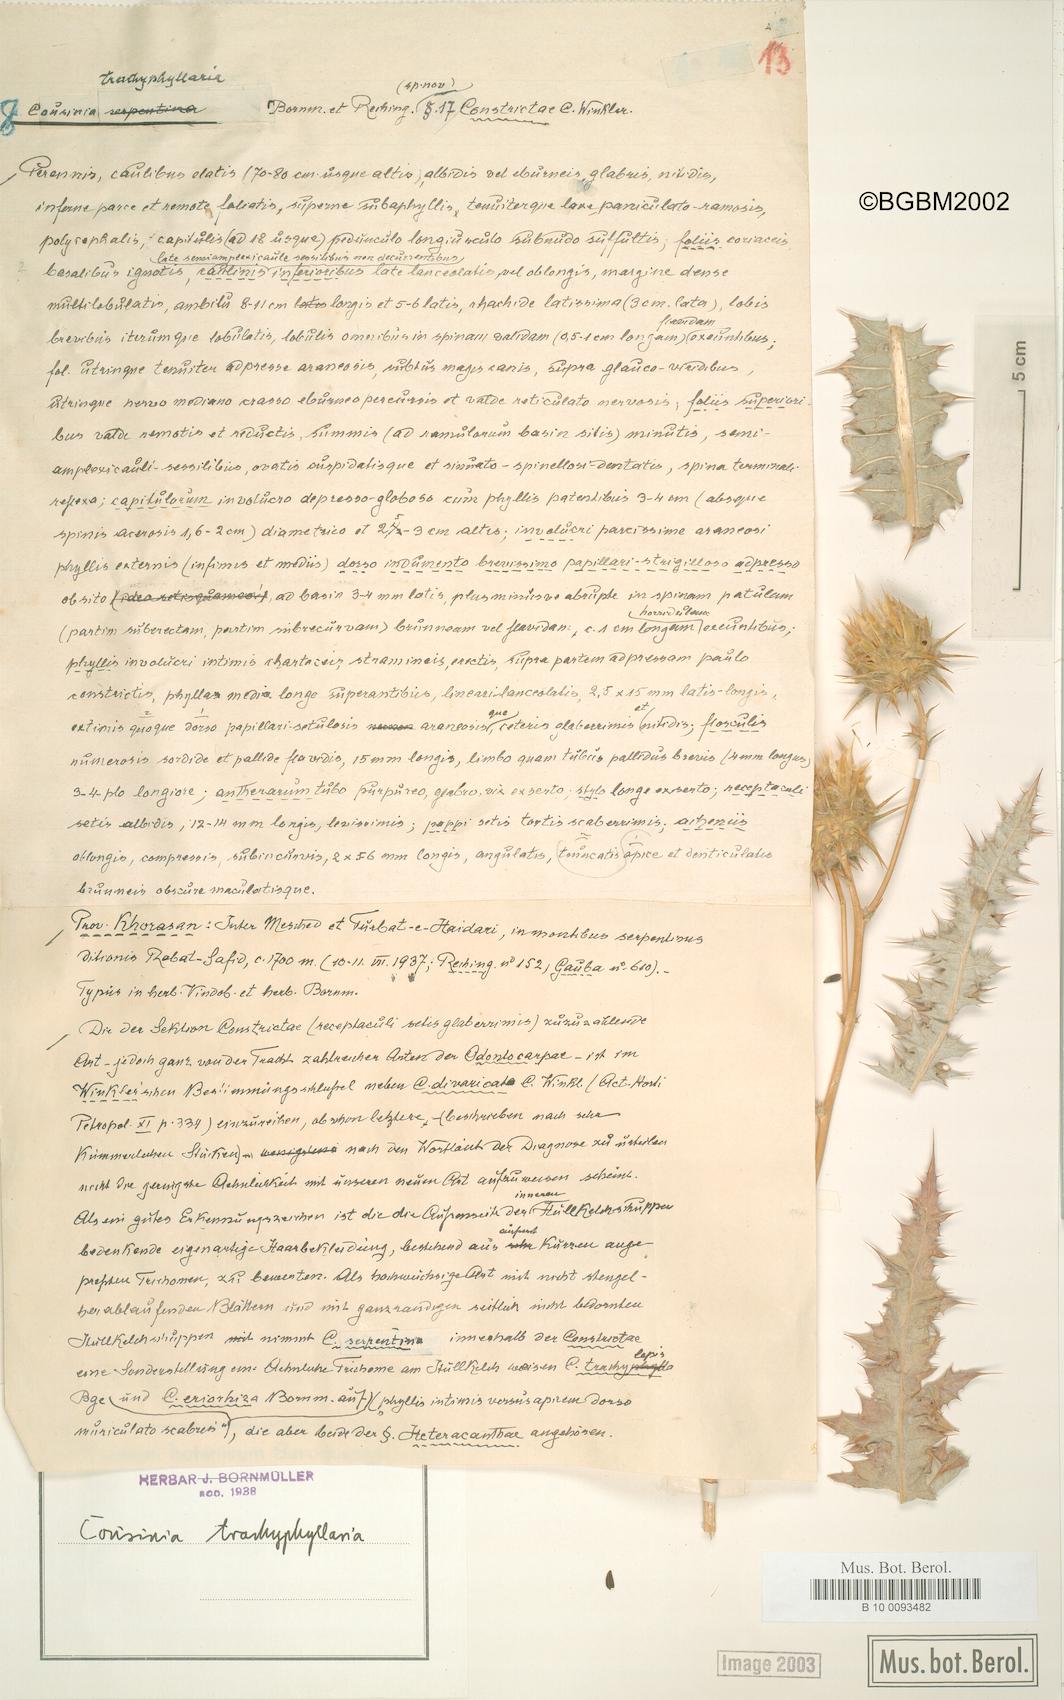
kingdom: Plantae
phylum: Tracheophyta
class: Magnoliopsida
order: Asterales
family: Asteraceae
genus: Cousinia
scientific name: Cousinia trachyphyllaria
